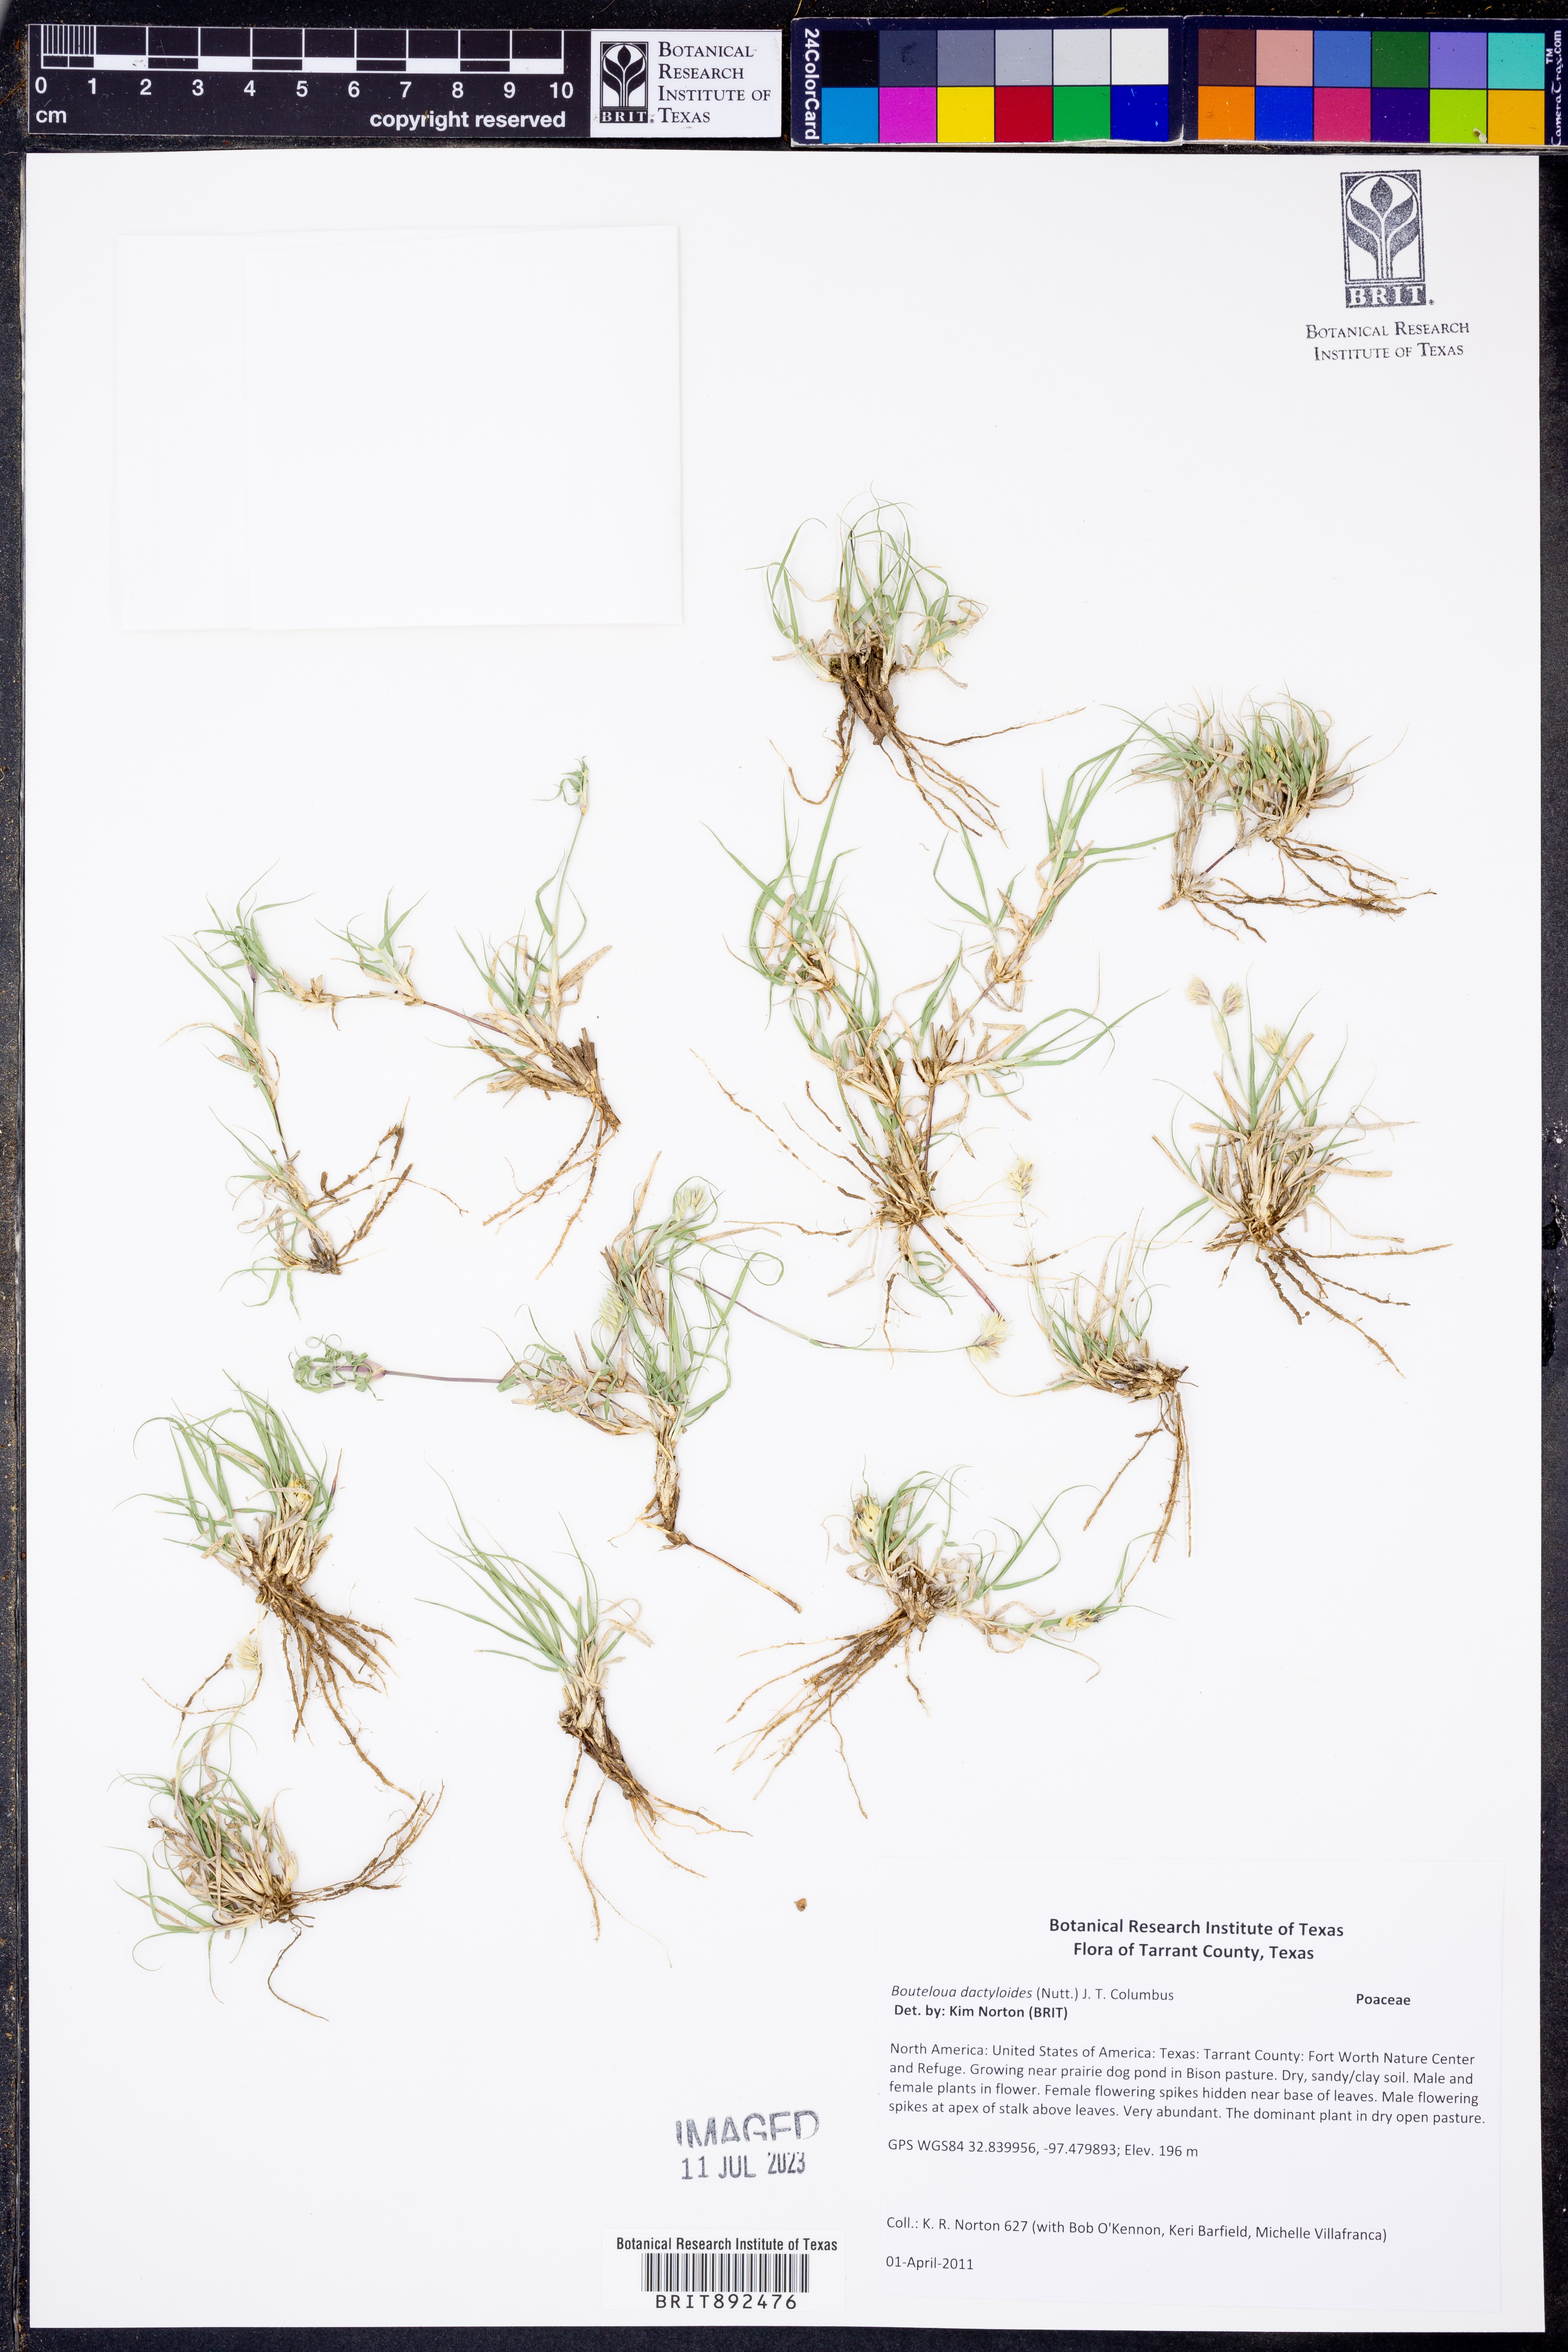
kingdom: Plantae
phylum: Tracheophyta
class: Liliopsida
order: Poales
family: Poaceae
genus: Bouteloua
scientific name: Bouteloua dactyloides
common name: Buffalo grass
